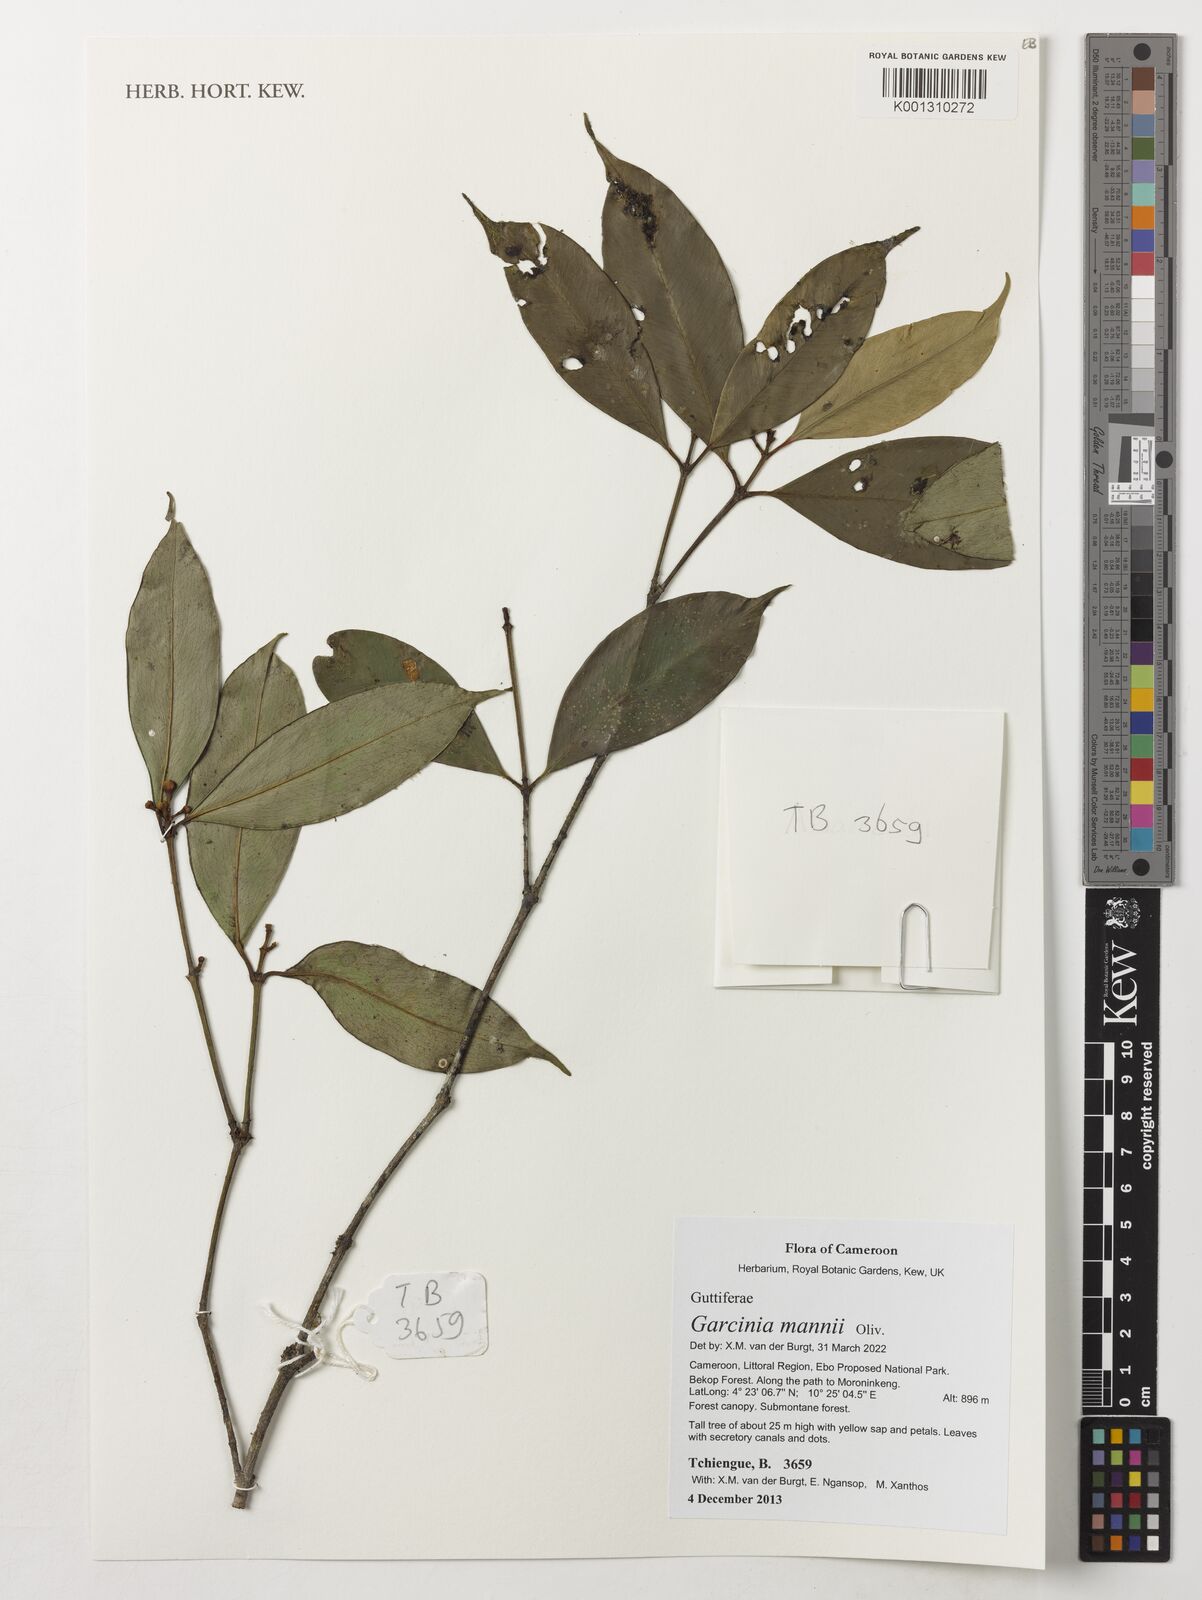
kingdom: Plantae
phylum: Tracheophyta
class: Magnoliopsida
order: Malpighiales
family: Clusiaceae
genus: Garcinia
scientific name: Garcinia mannii
